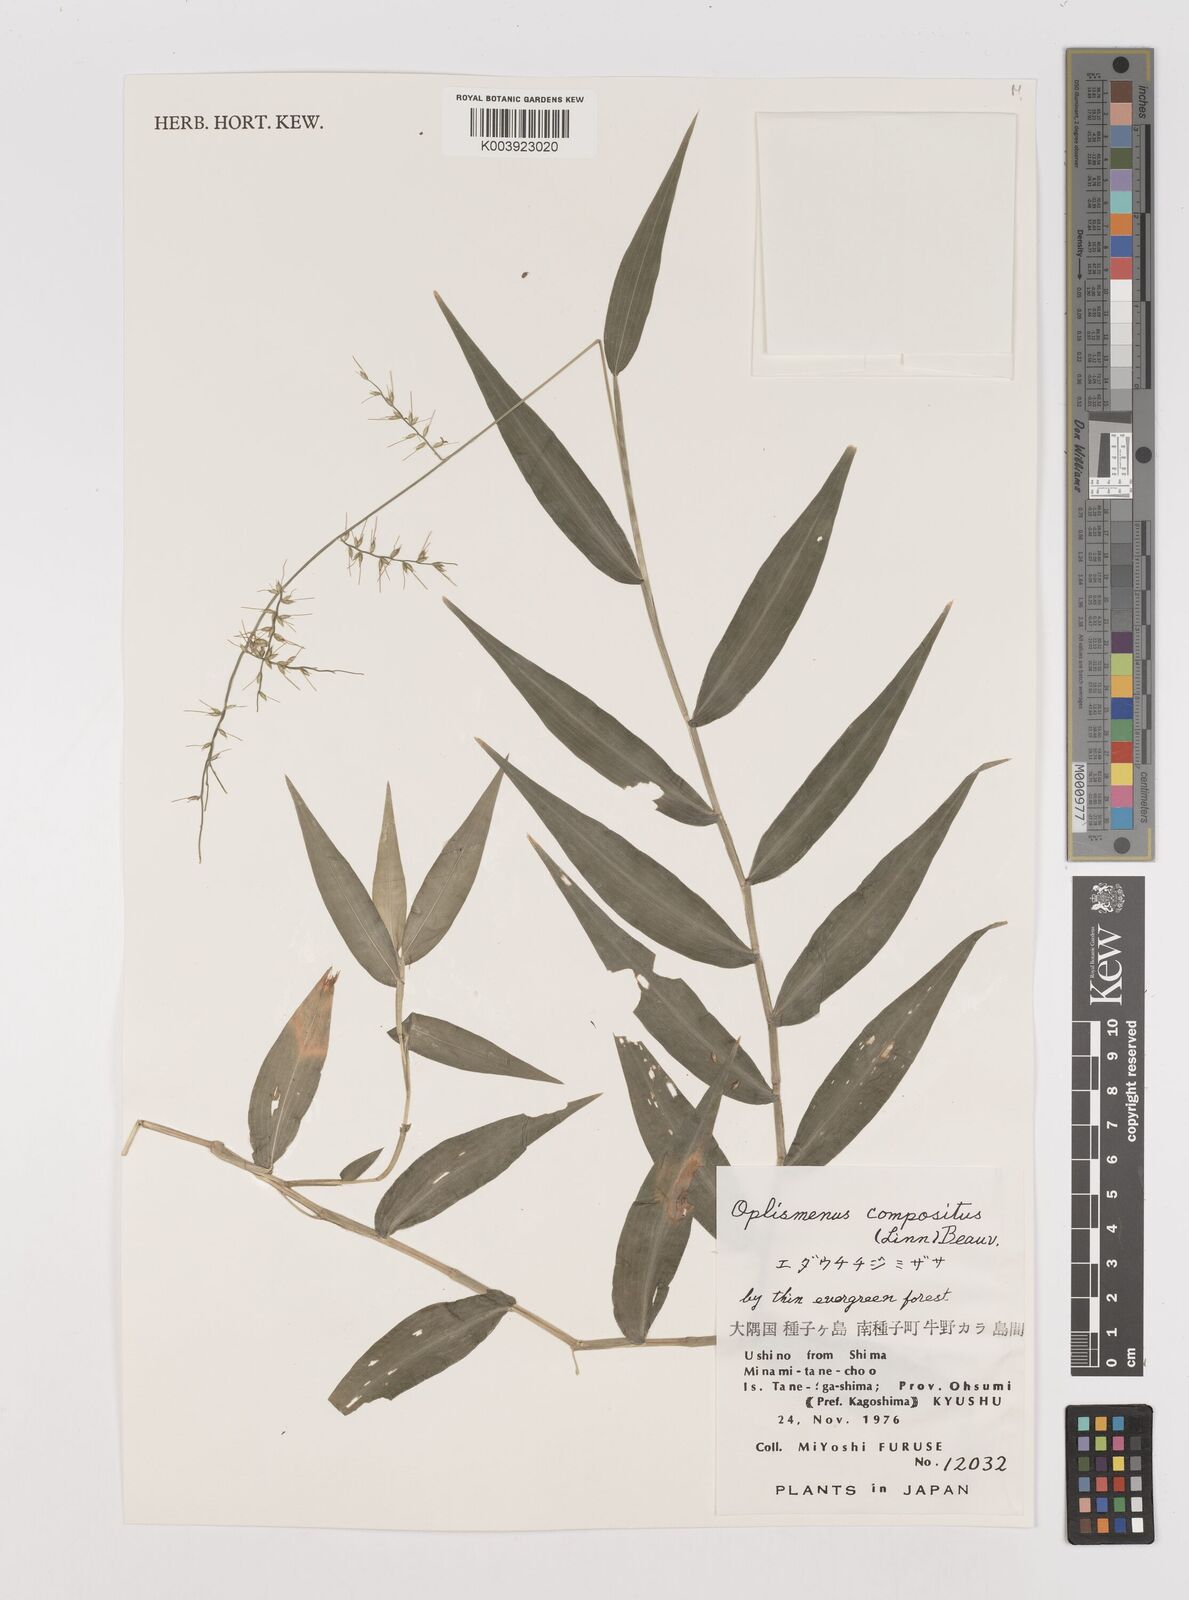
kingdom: Plantae
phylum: Tracheophyta
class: Liliopsida
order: Poales
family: Poaceae
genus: Oplismenus
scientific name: Oplismenus compositus
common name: Running mountain grass
